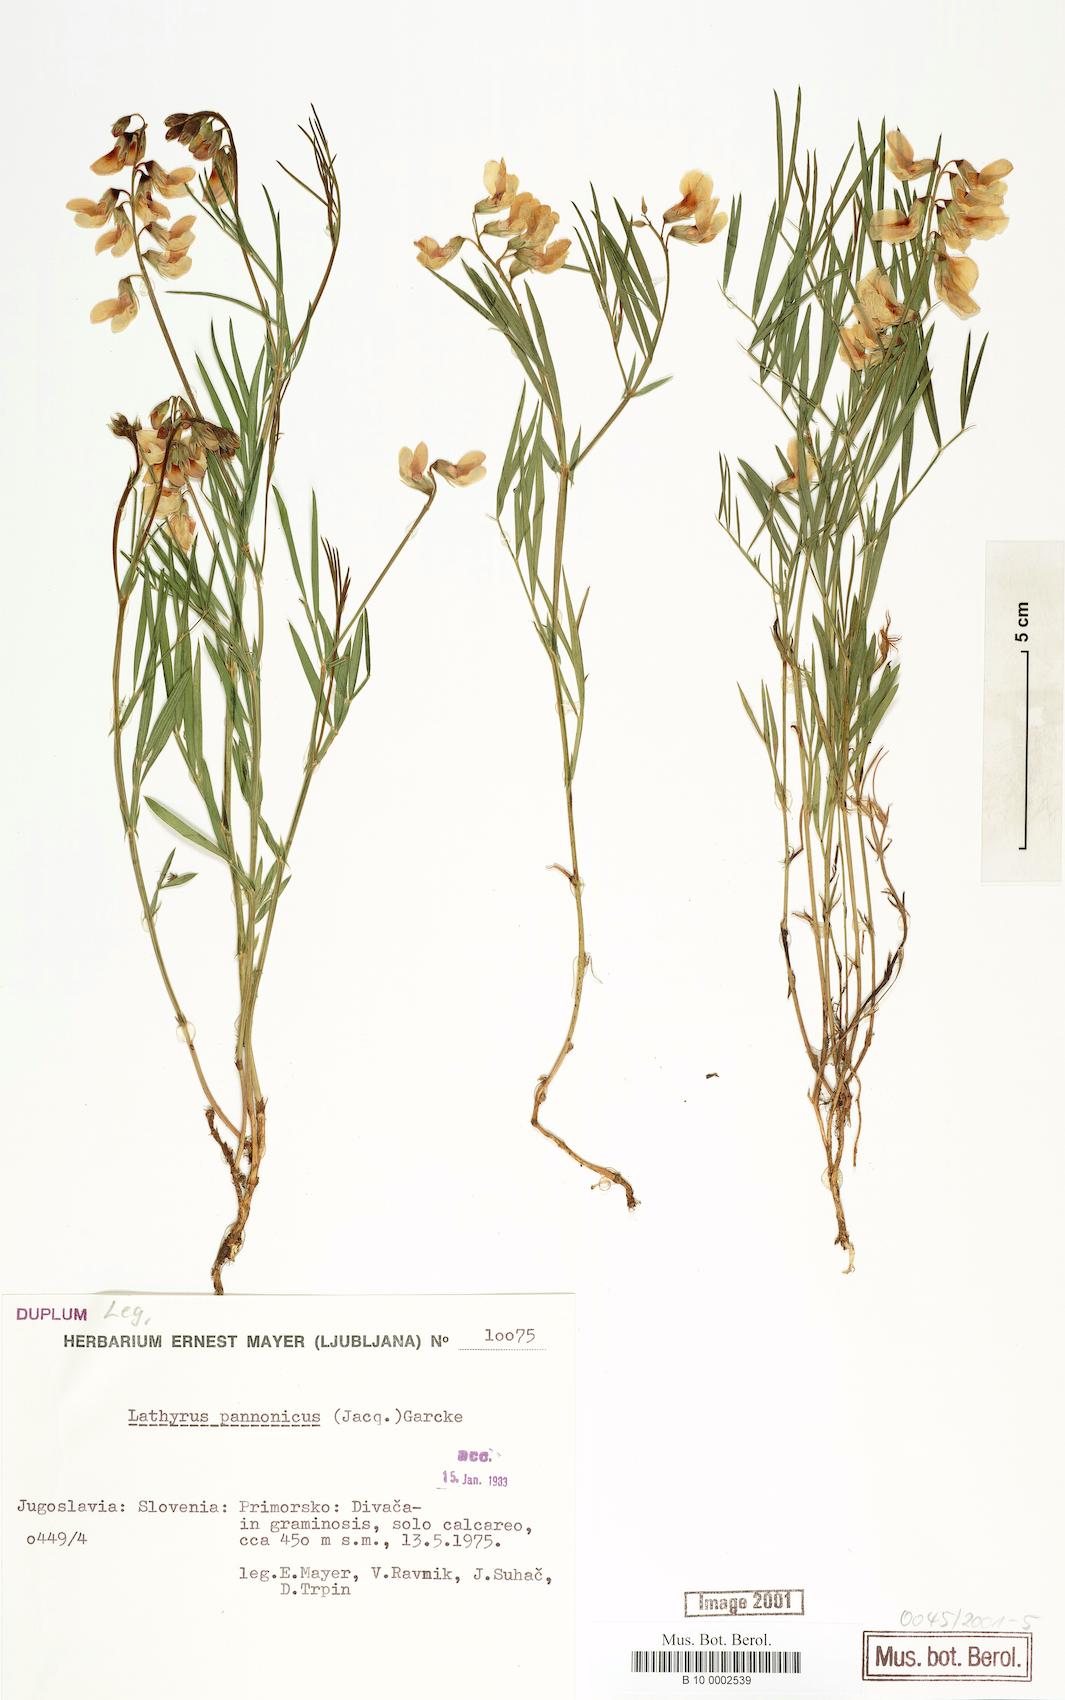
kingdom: Plantae
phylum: Tracheophyta
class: Magnoliopsida
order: Fabales
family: Fabaceae
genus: Lathyrus
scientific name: Lathyrus pannonicus
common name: Pea
